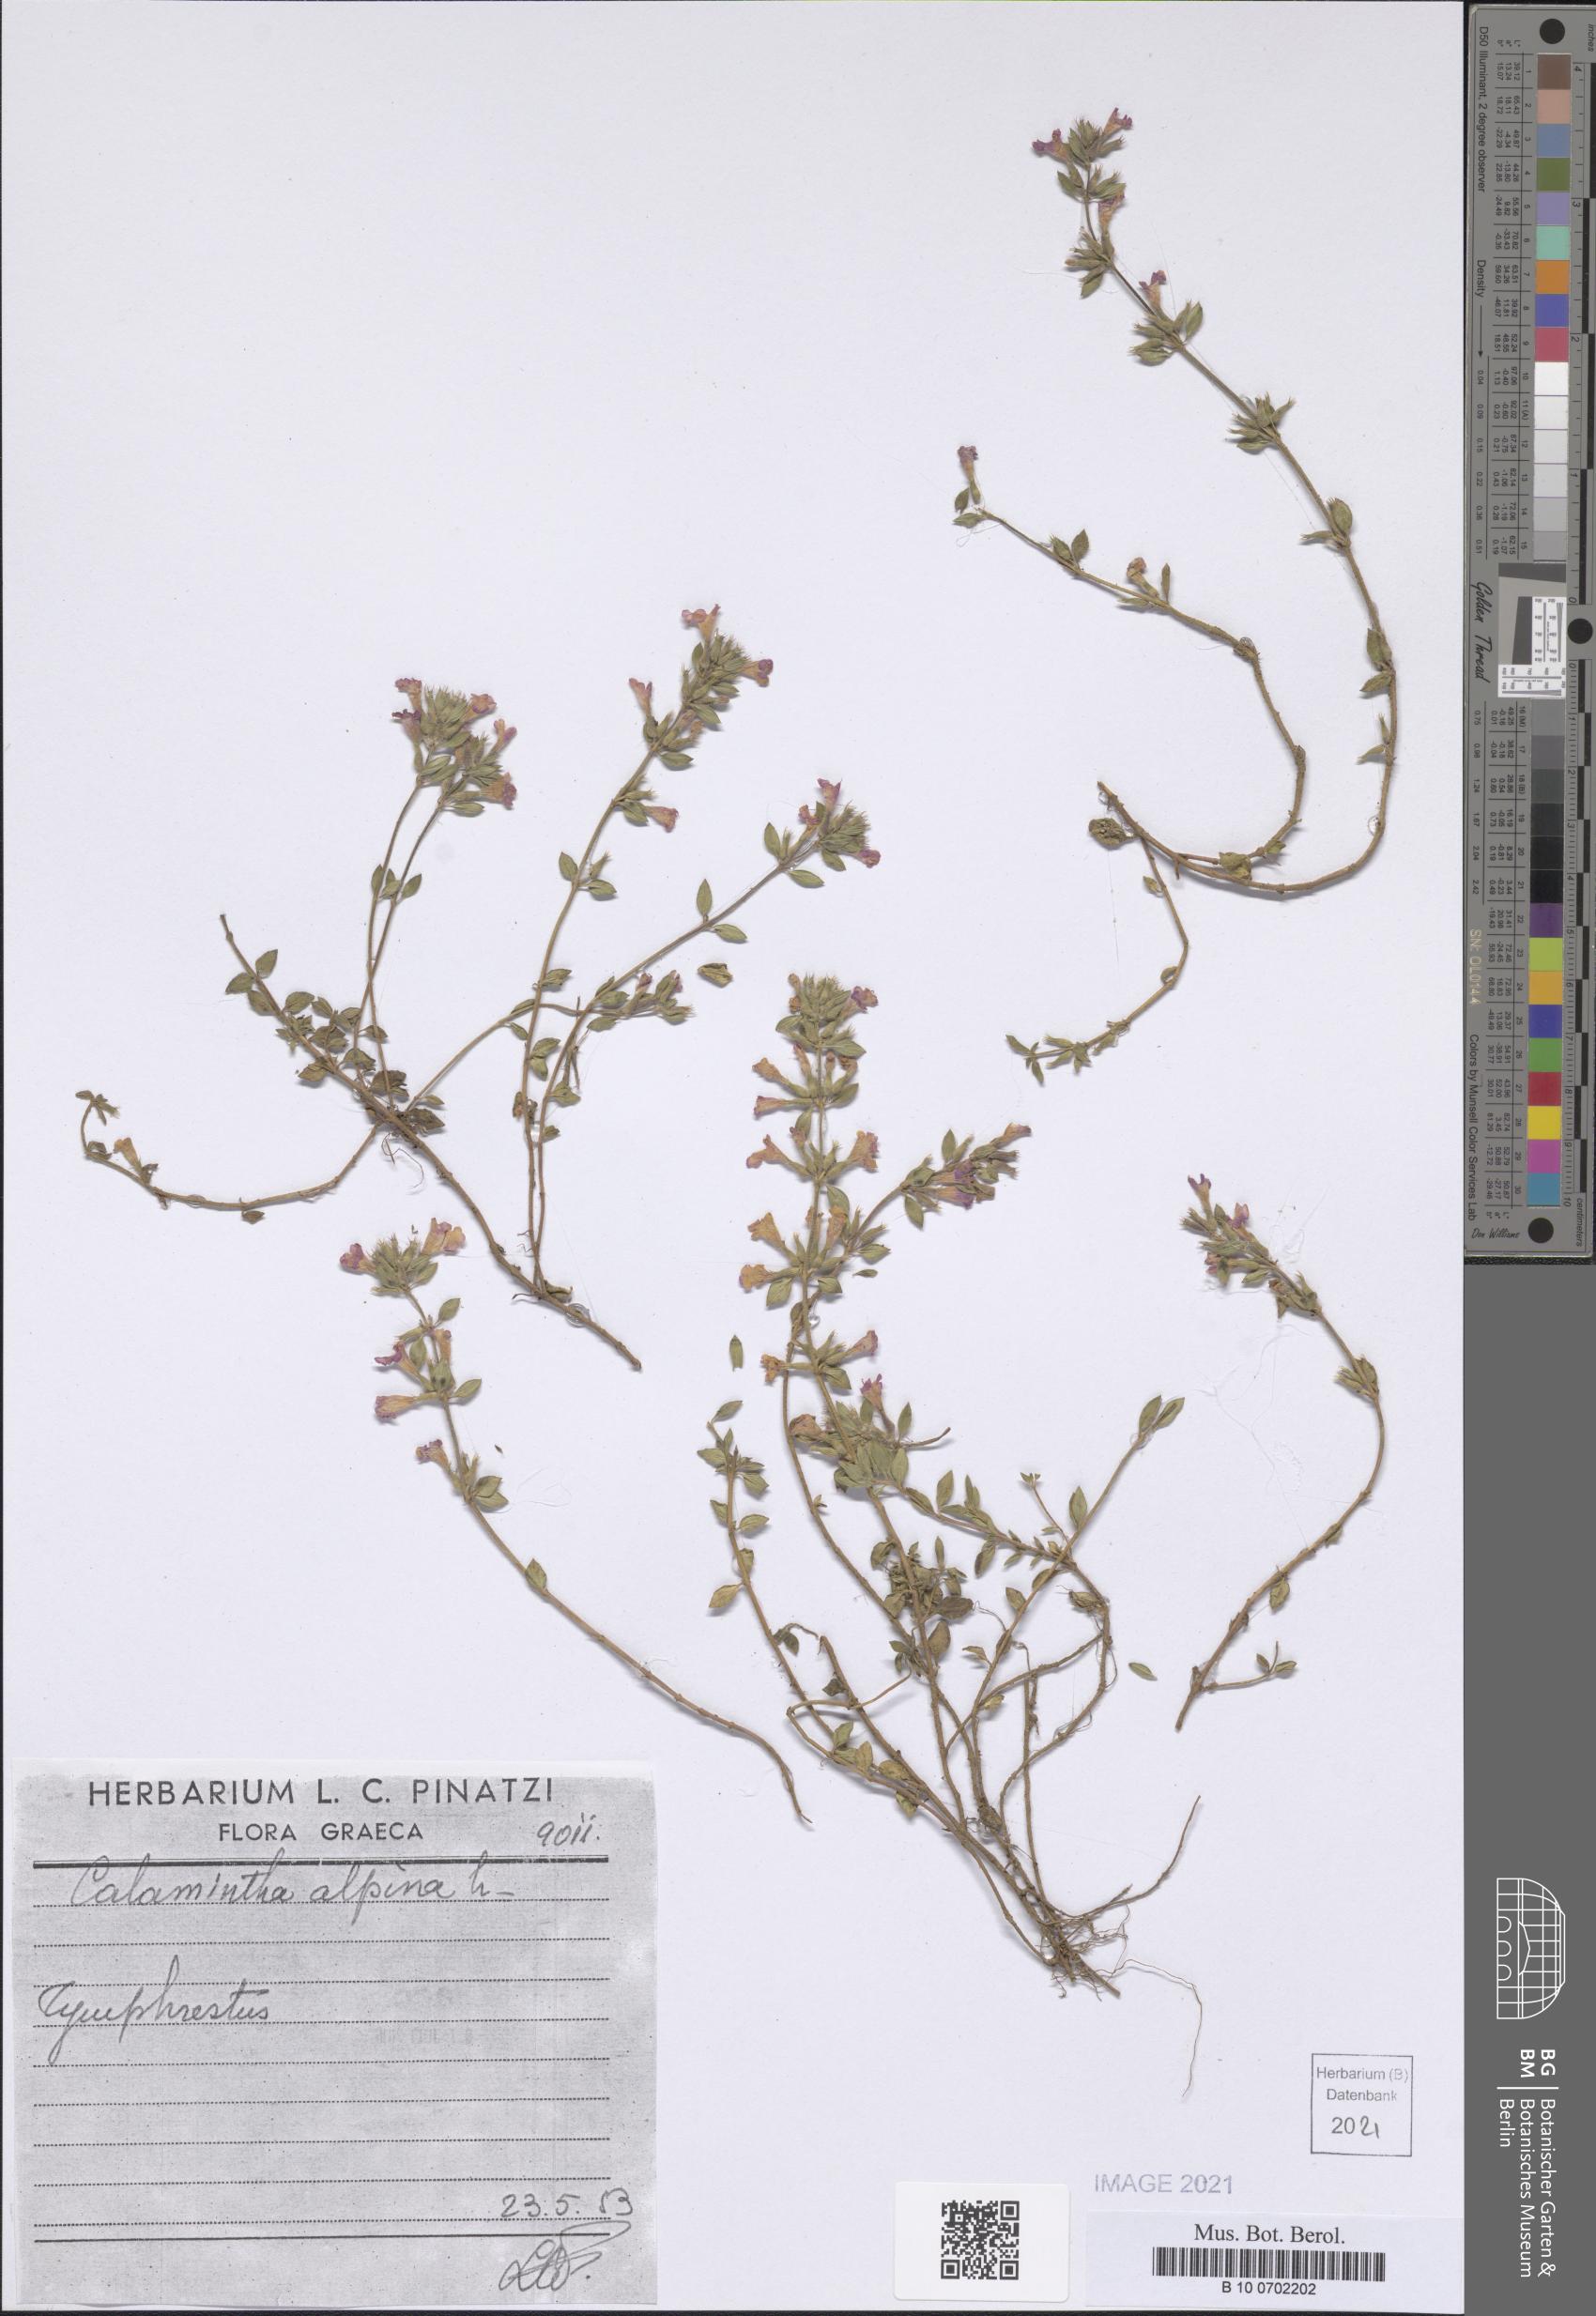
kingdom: Plantae
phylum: Tracheophyta
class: Magnoliopsida
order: Lamiales
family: Lamiaceae
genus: Clinopodium
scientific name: Clinopodium alpinum
